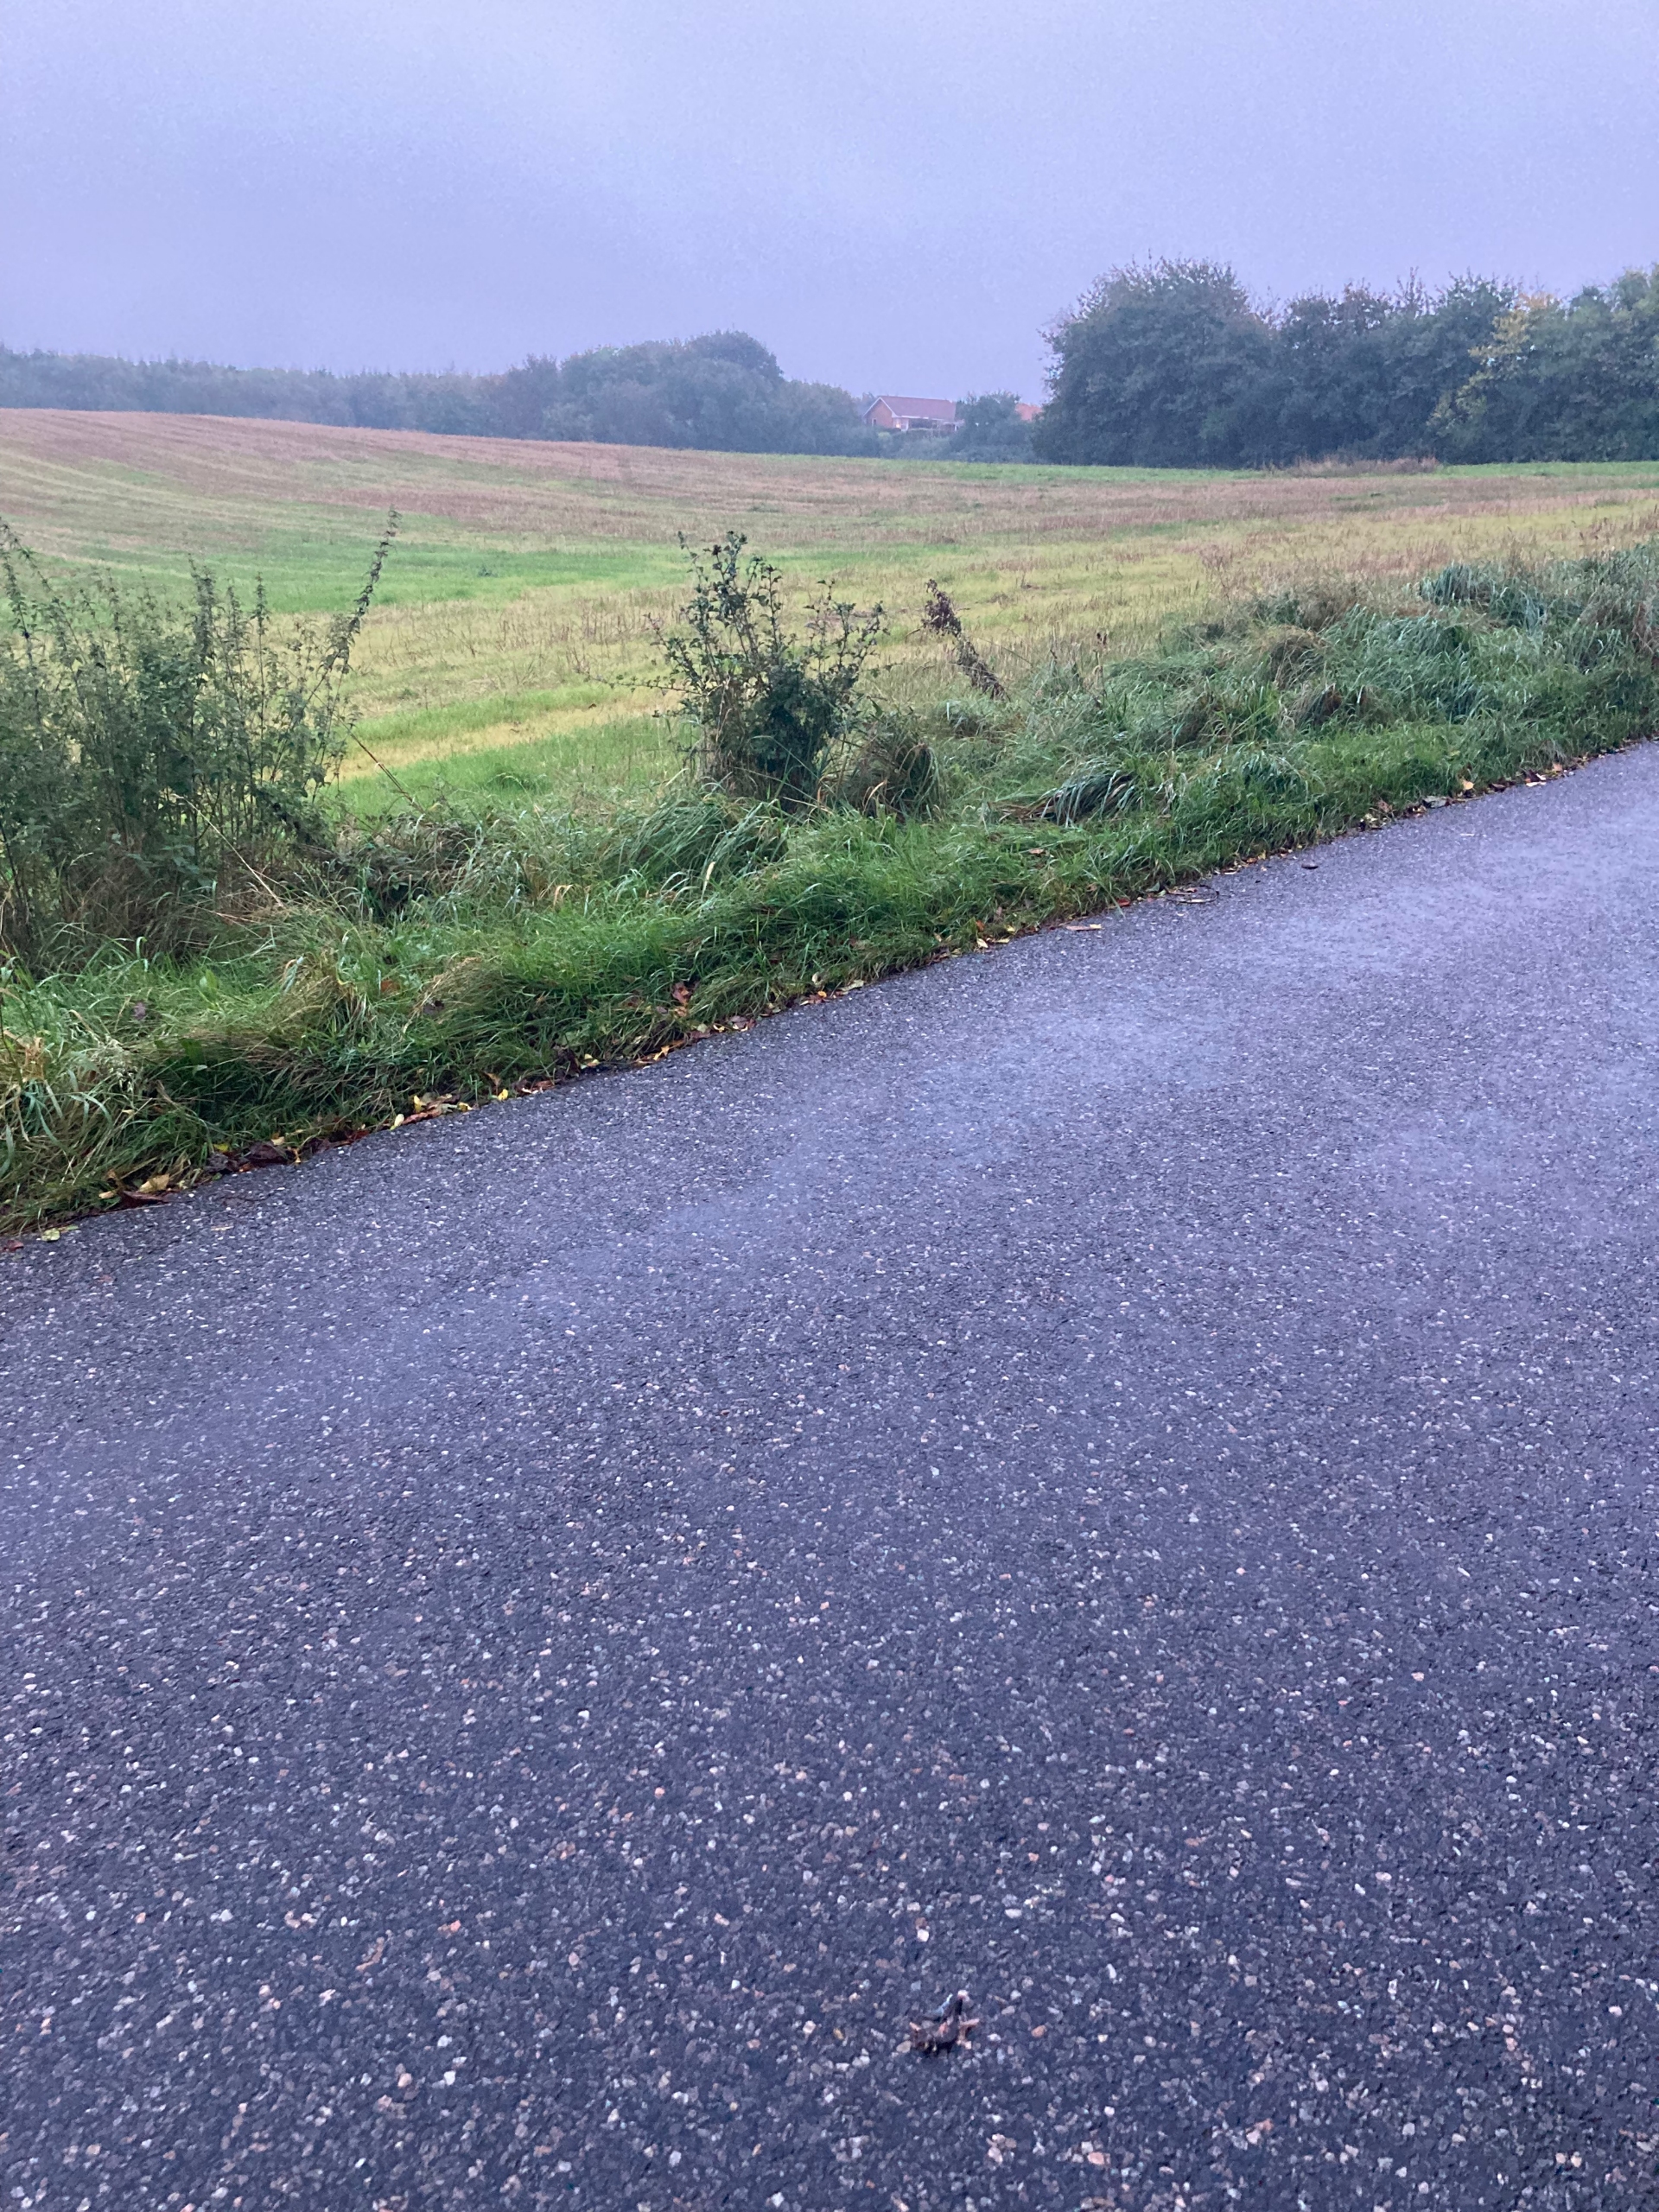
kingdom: Animalia
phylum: Chordata
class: Amphibia
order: Caudata
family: Salamandridae
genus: Triturus
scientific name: Triturus cristatus
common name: Stor vandsalamander
